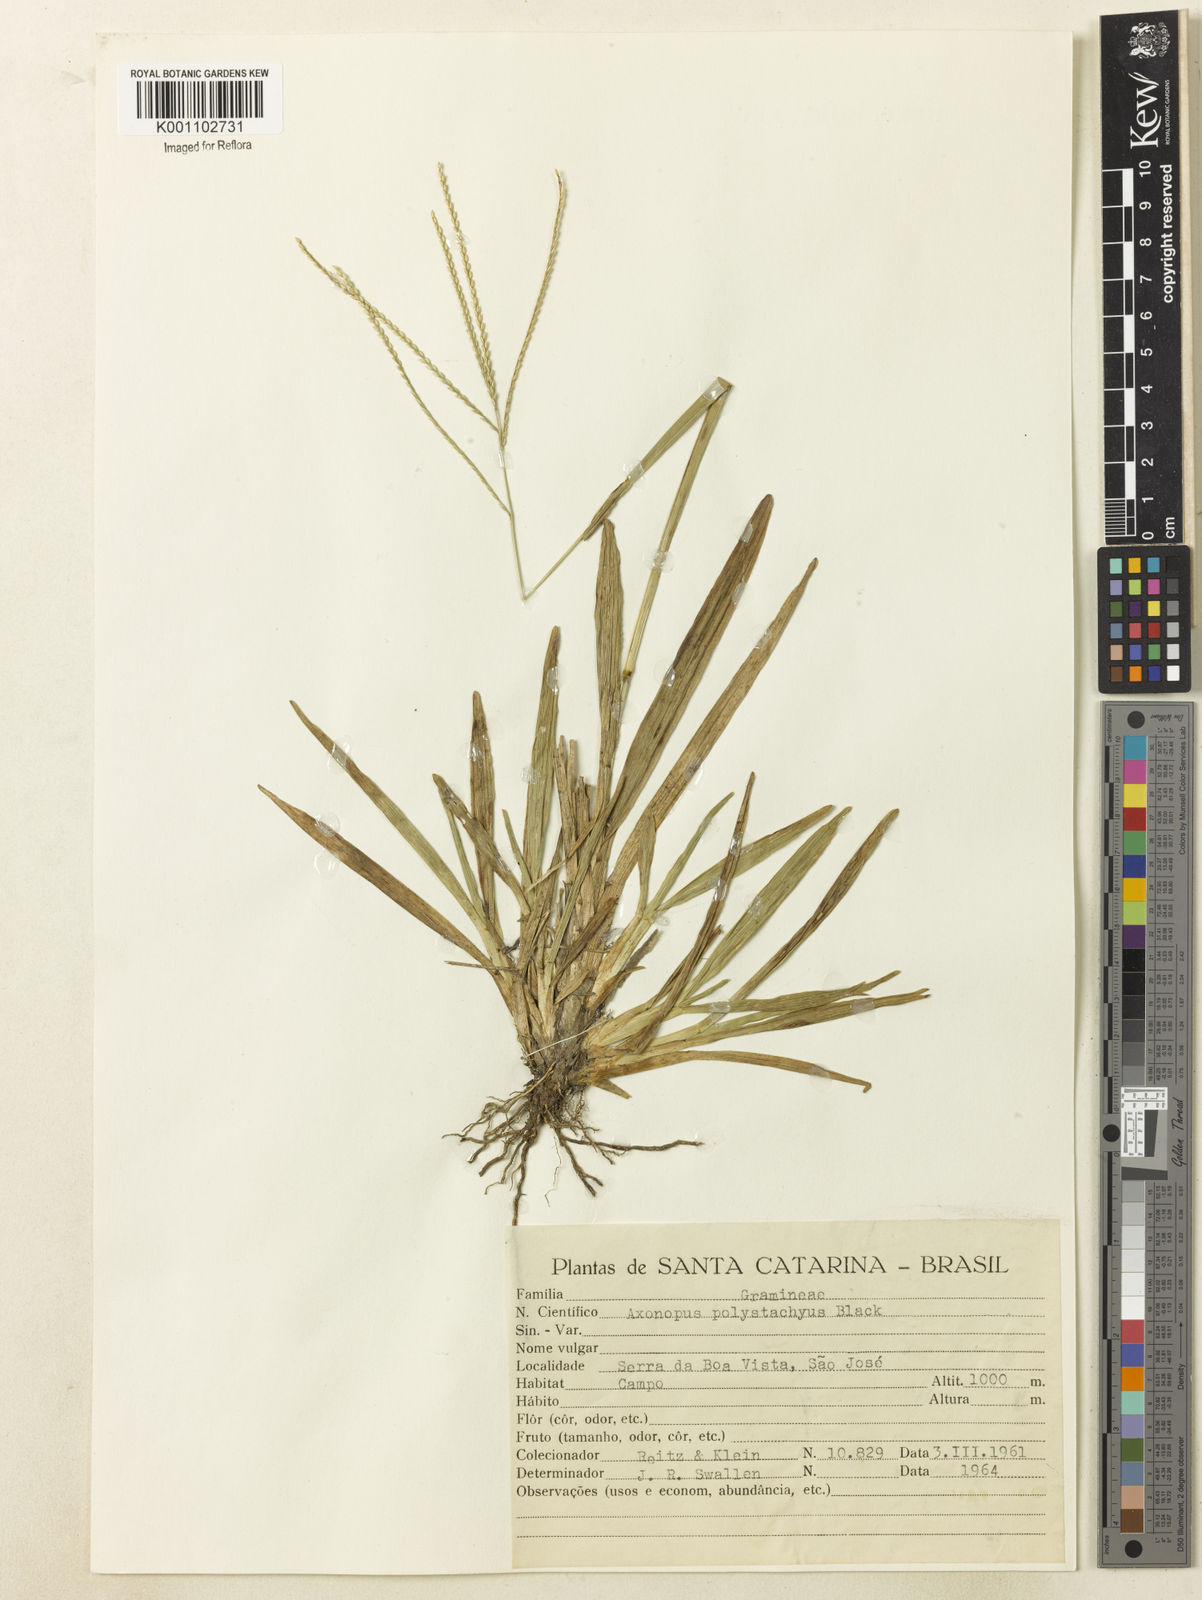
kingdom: Plantae
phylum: Tracheophyta
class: Liliopsida
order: Poales
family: Poaceae
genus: Axonopus
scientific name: Axonopus polystachyus
